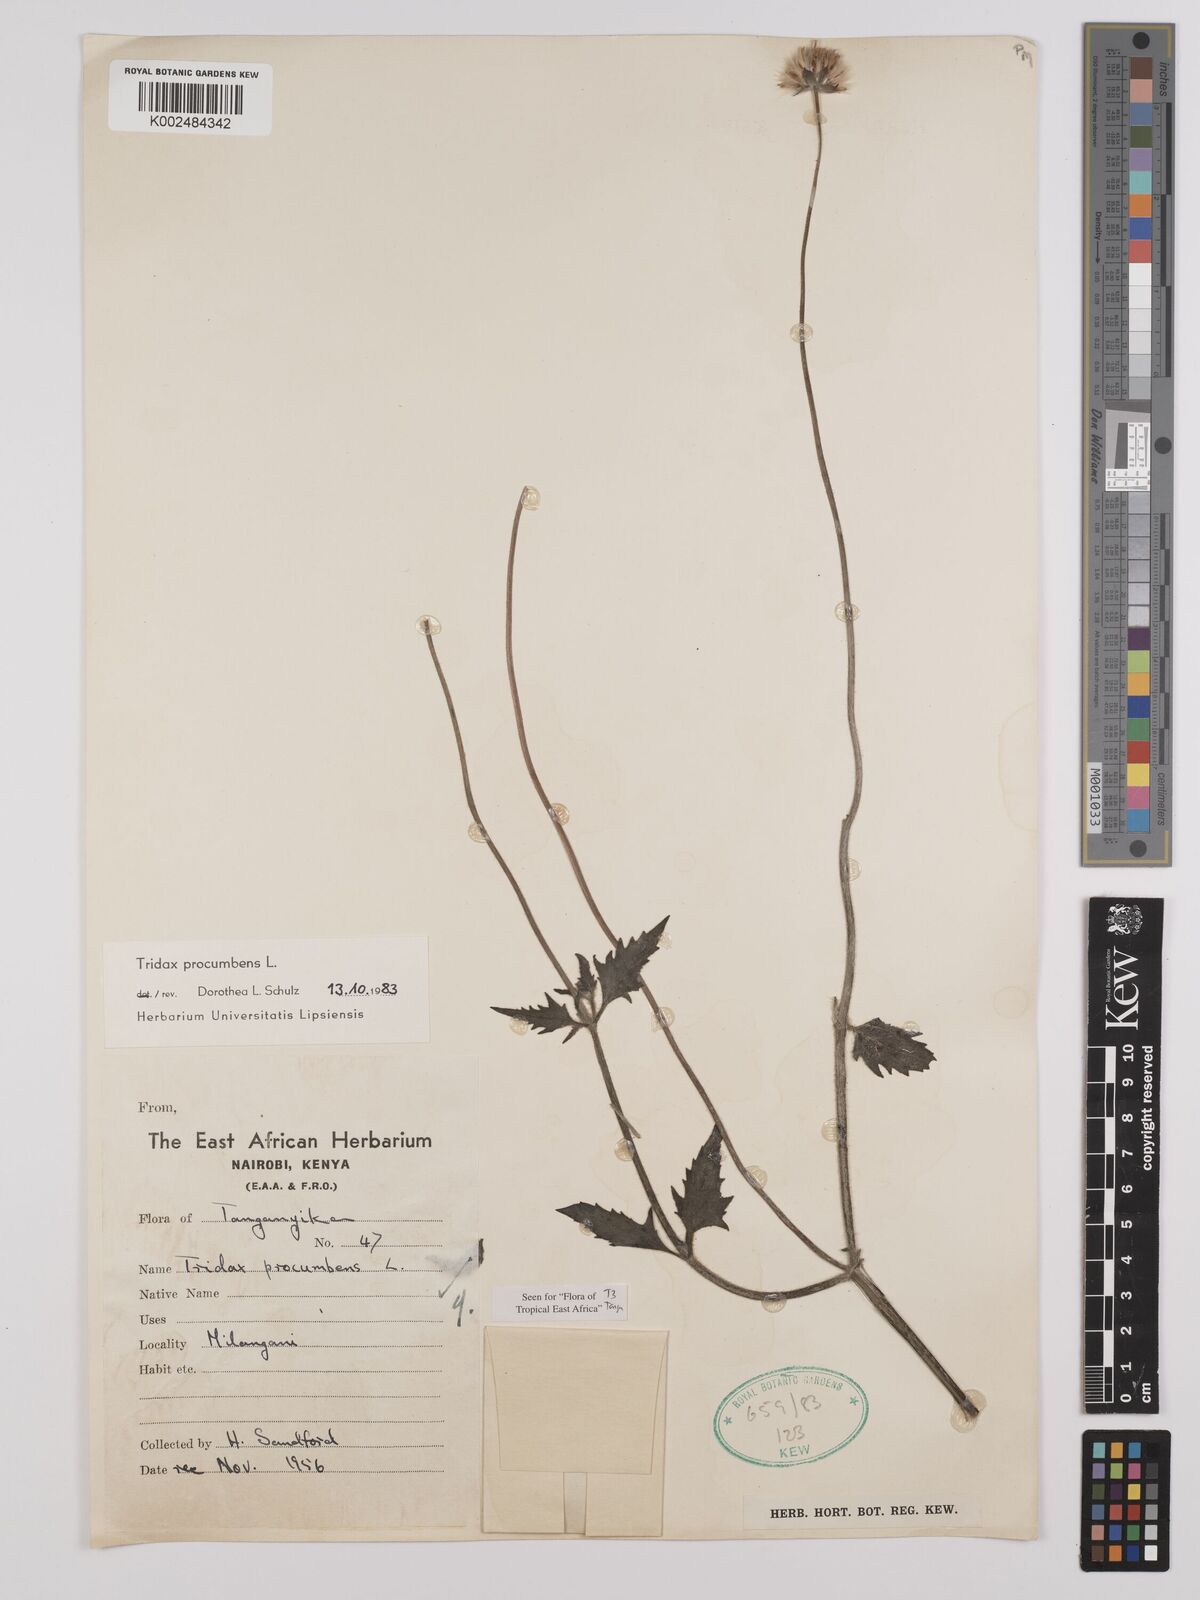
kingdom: Plantae
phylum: Tracheophyta
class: Magnoliopsida
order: Asterales
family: Asteraceae
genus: Tridax
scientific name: Tridax procumbens
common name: Coatbuttons
